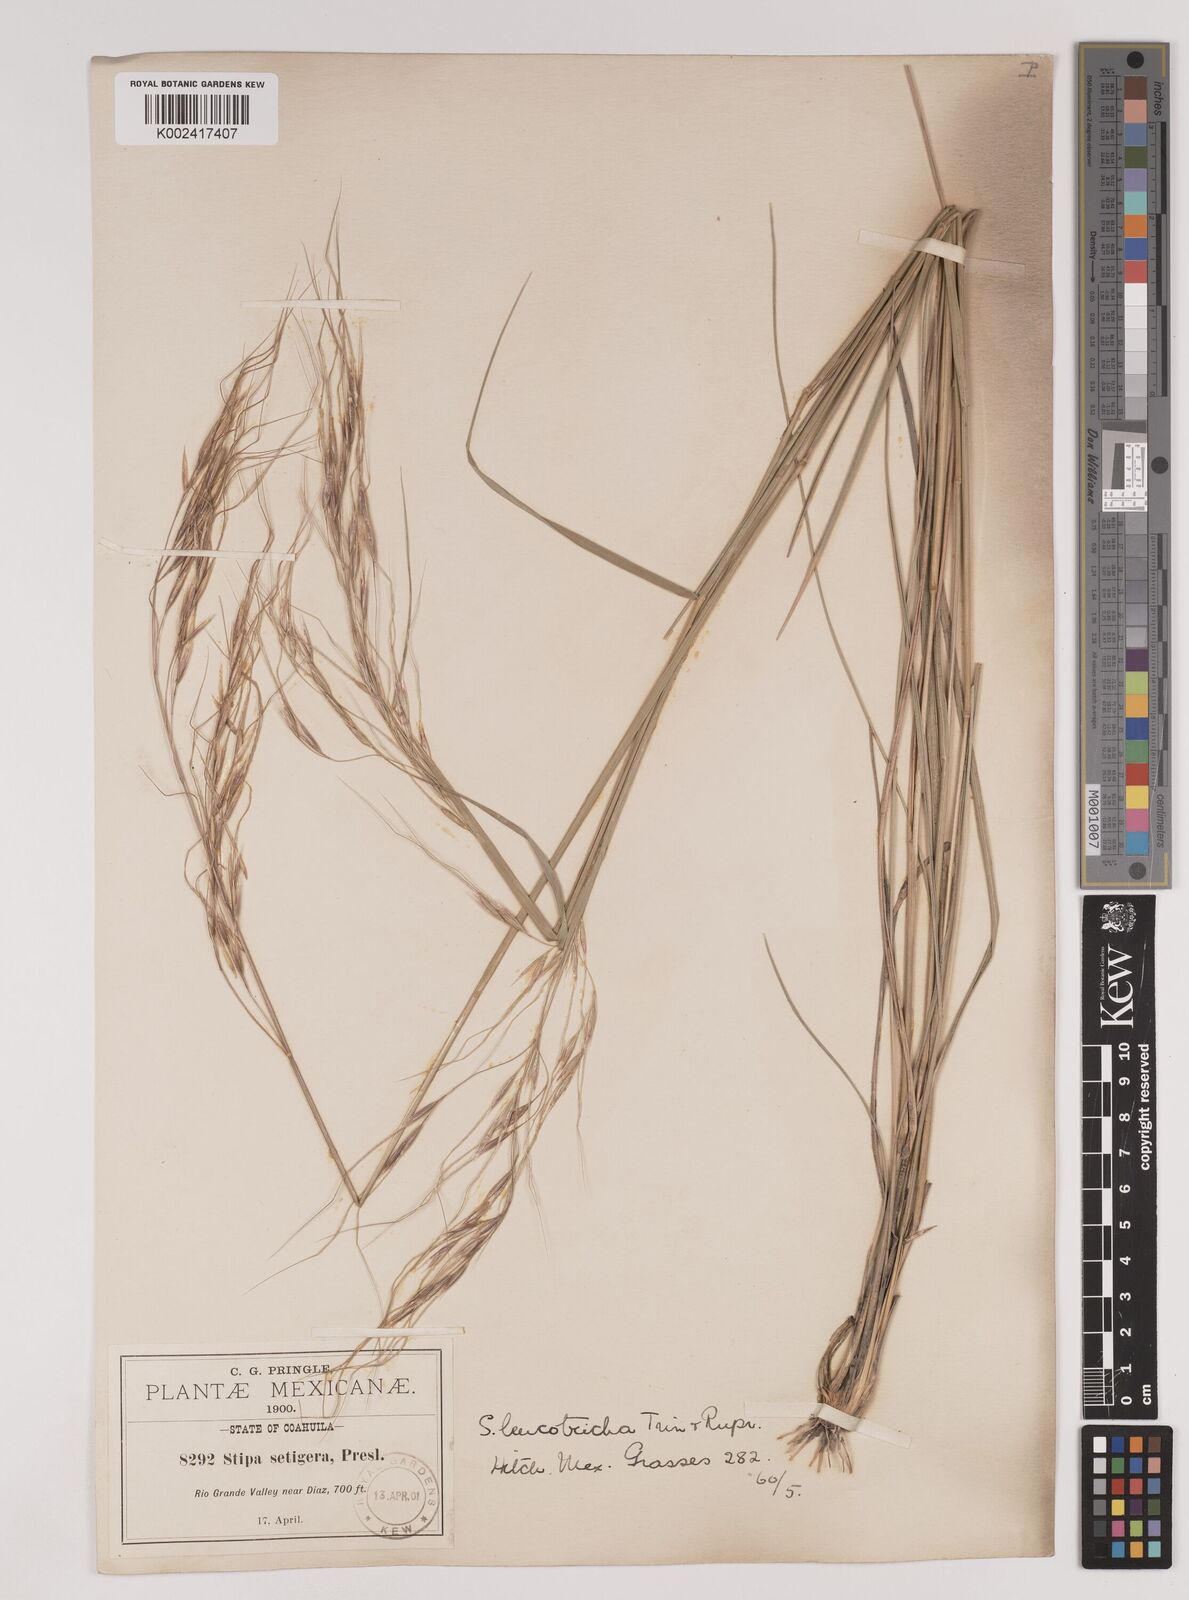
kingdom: Plantae
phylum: Tracheophyta
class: Liliopsida
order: Poales
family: Poaceae
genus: Nassella
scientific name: Nassella leucotricha
